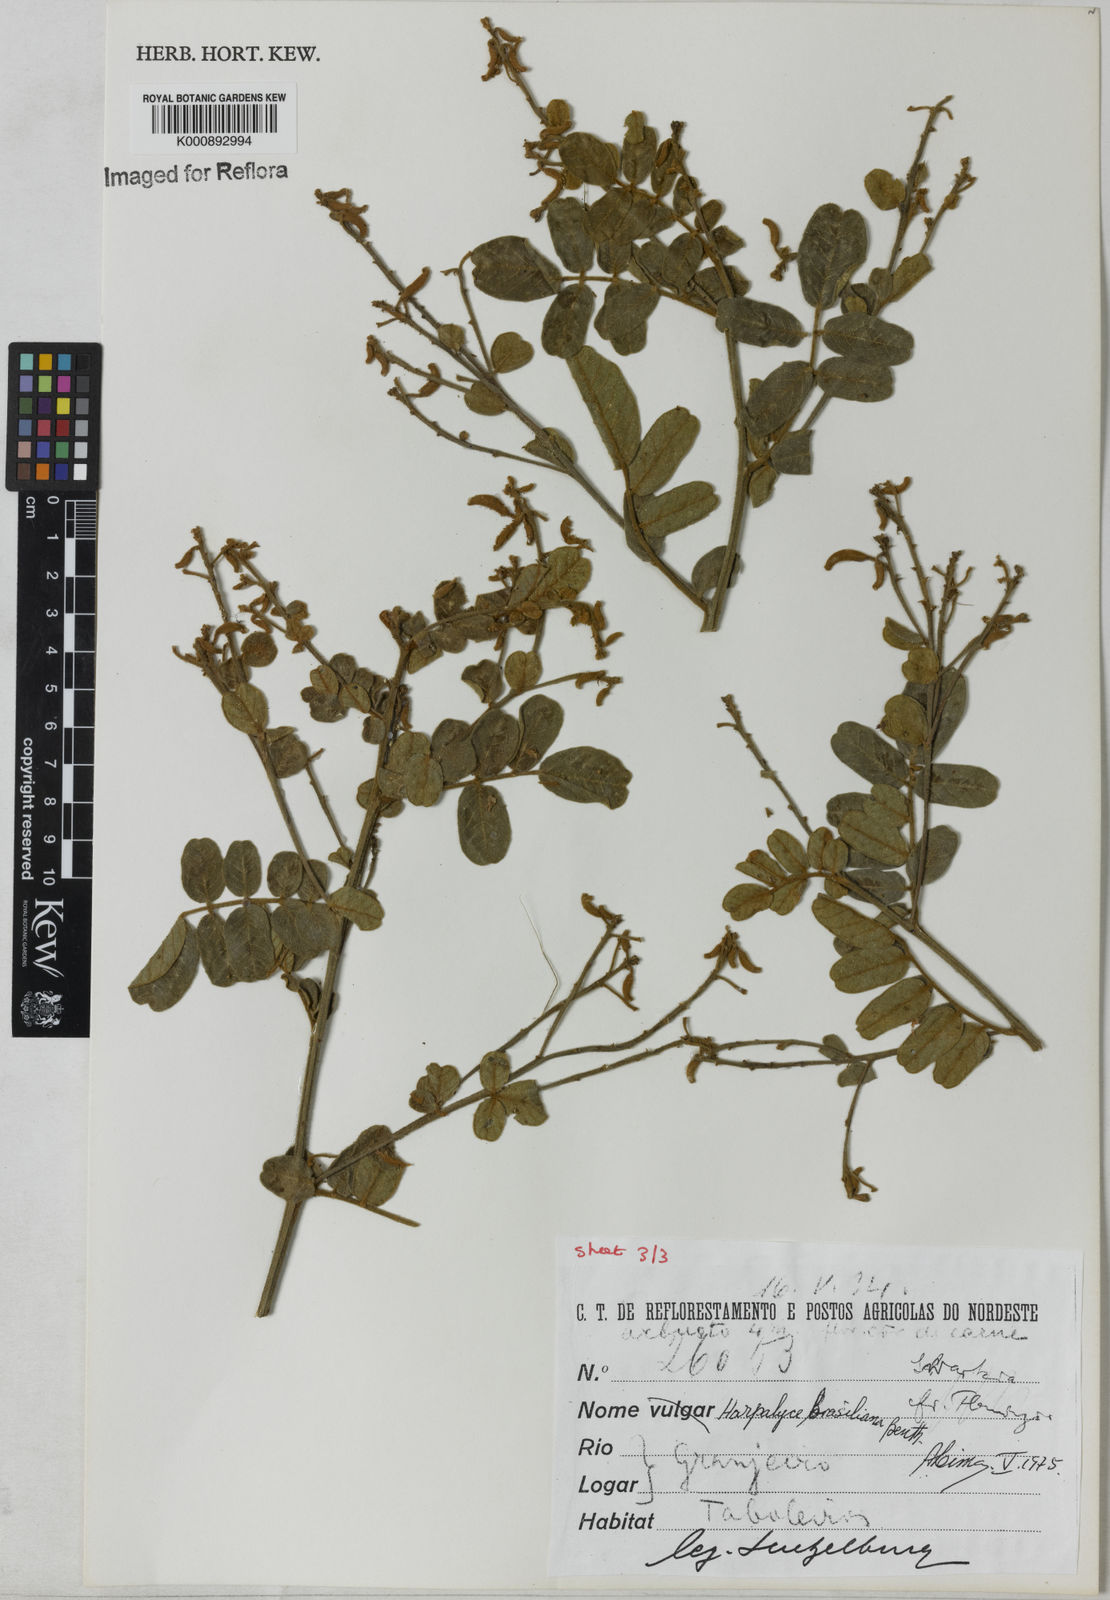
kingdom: Plantae
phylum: Tracheophyta
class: Magnoliopsida
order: Fabales
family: Fabaceae
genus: Harpalyce
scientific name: Harpalyce brasiliana
